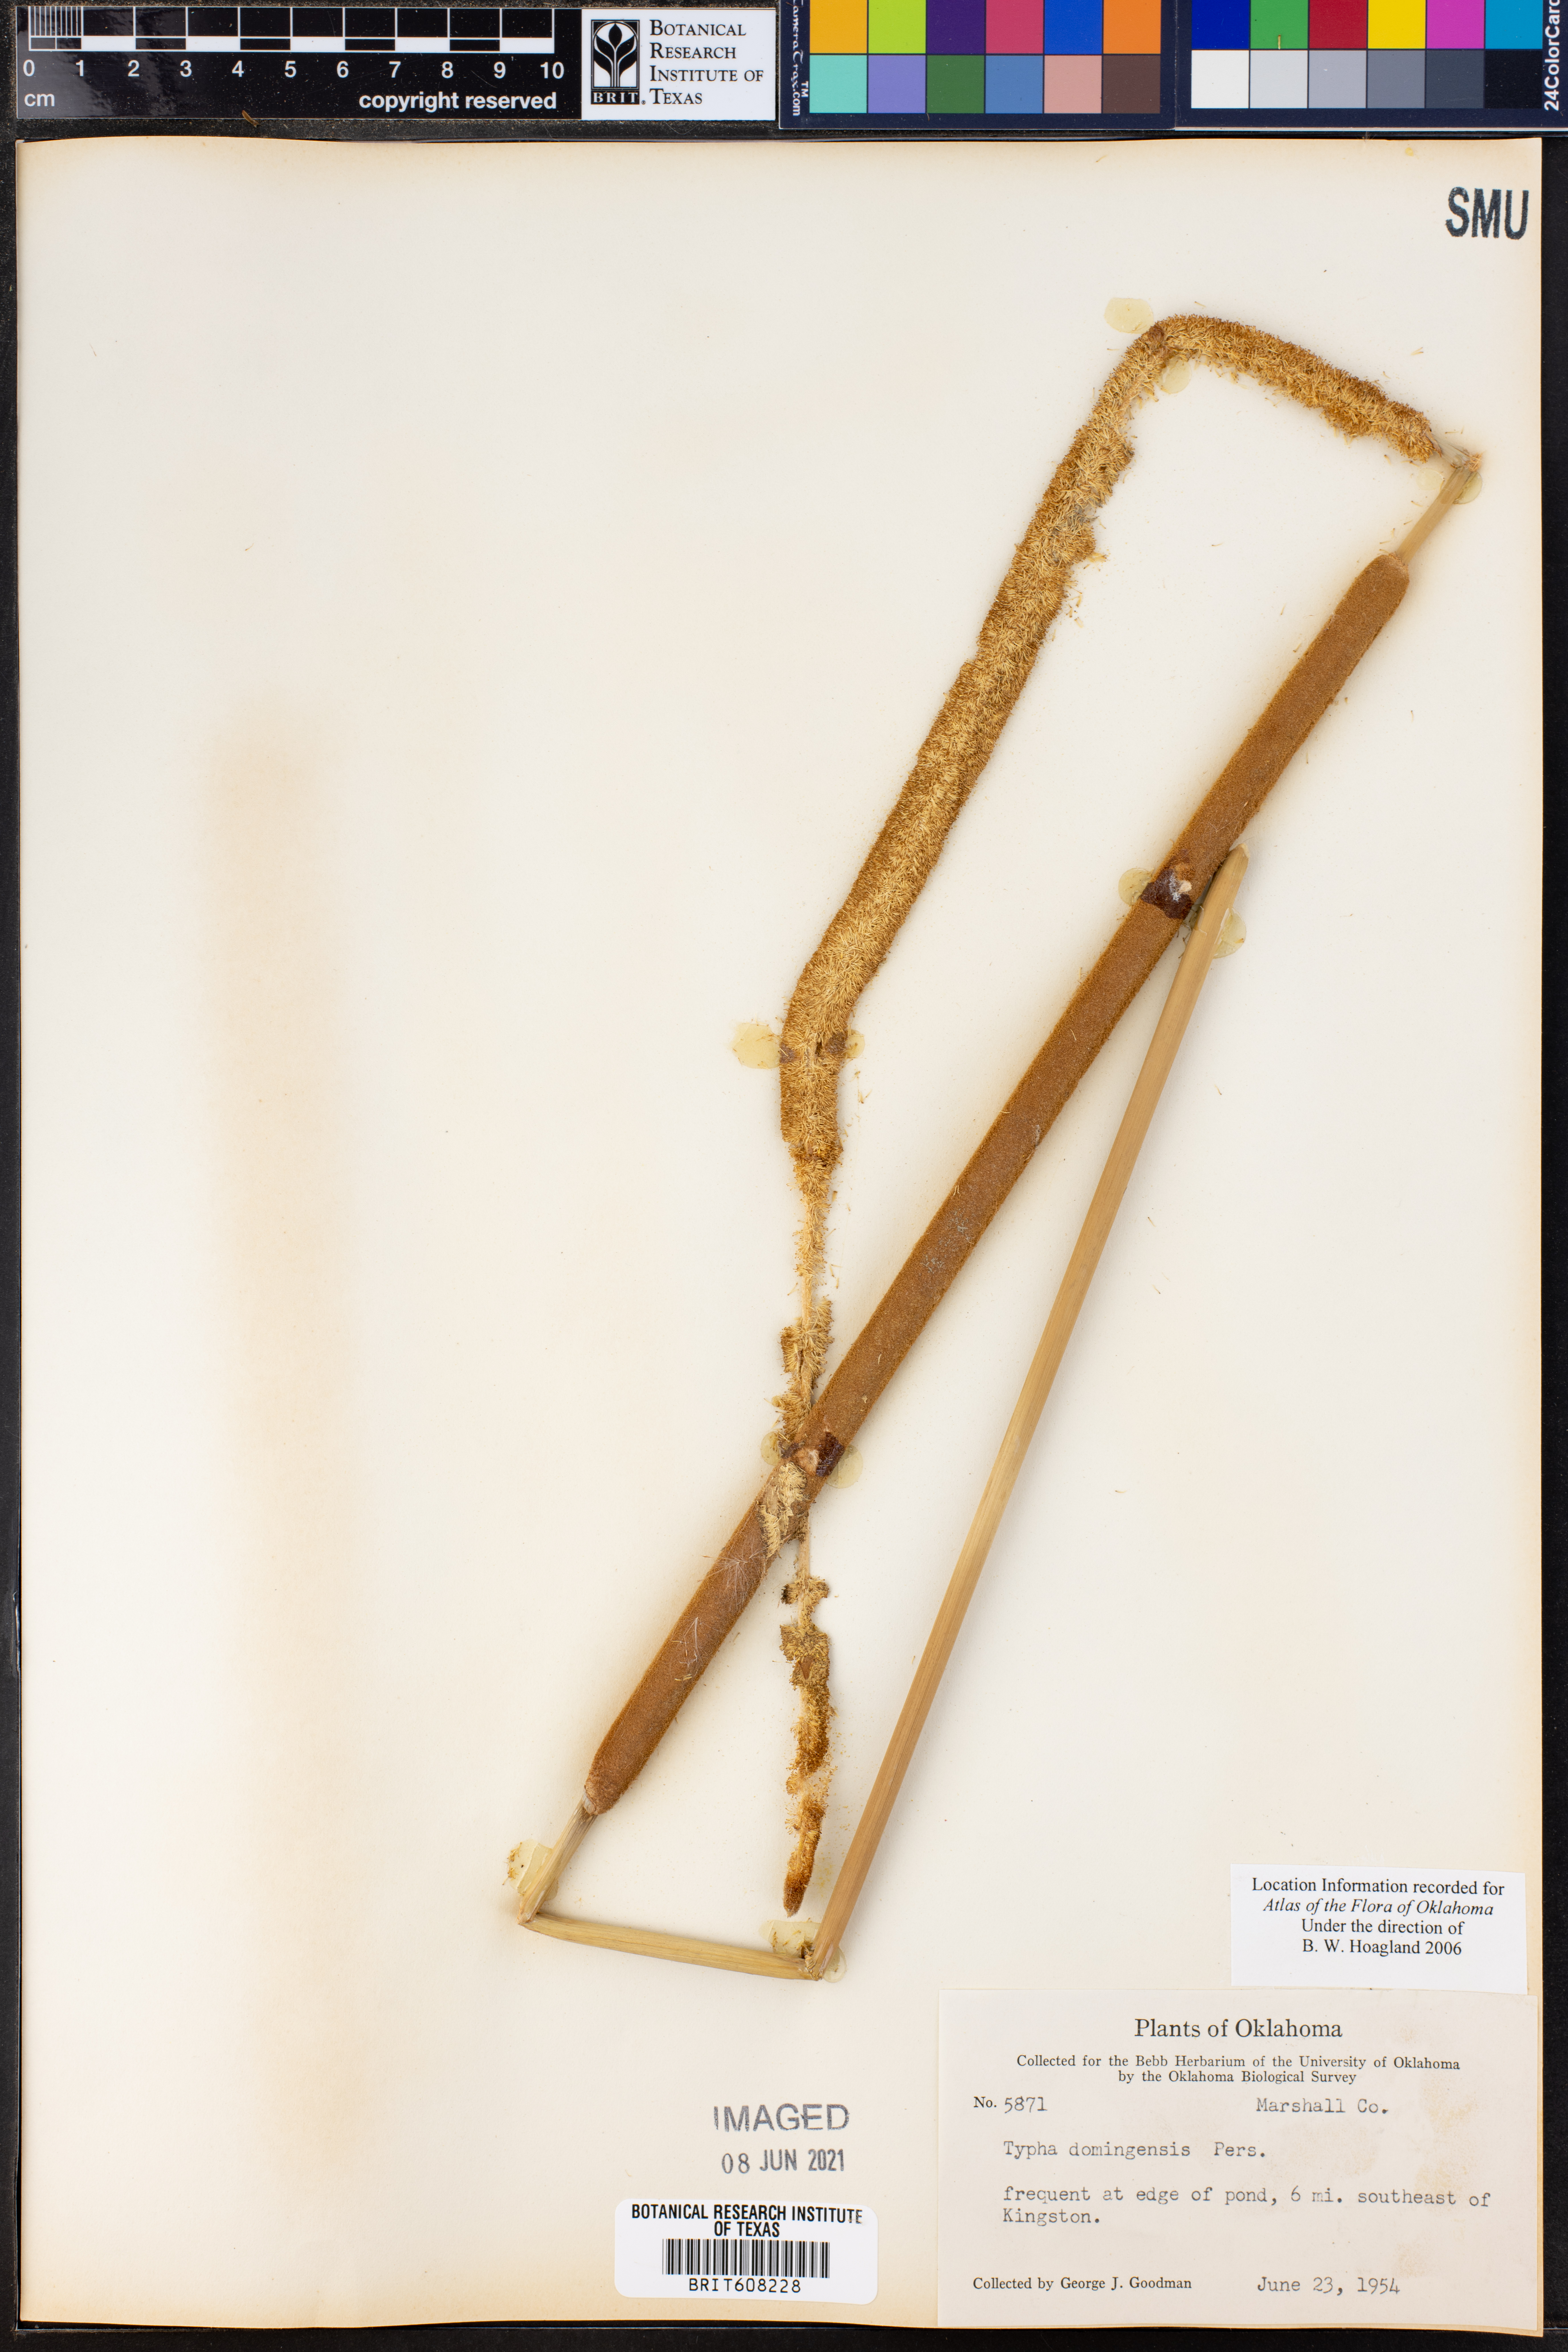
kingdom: Plantae
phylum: Tracheophyta
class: Liliopsida
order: Poales
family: Typhaceae
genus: Typha
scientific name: Typha domingensis
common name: Southern cattail
